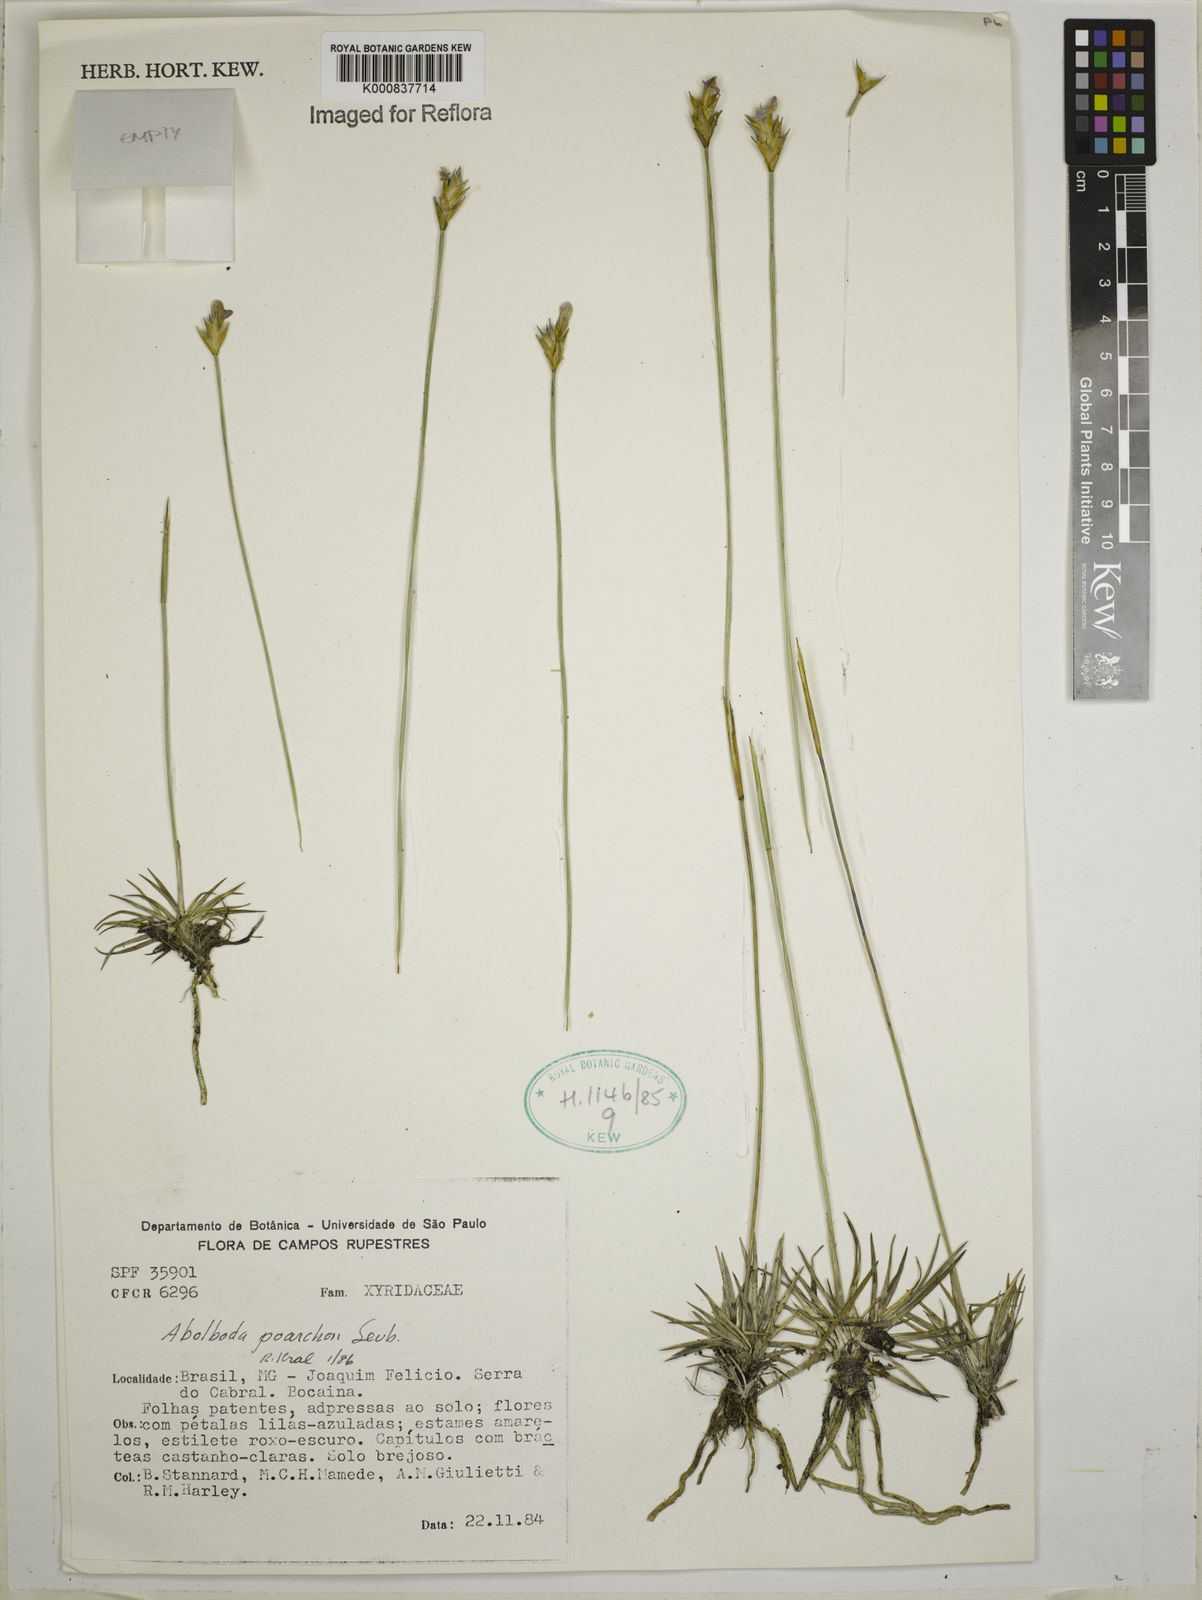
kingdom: Plantae
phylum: Tracheophyta
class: Liliopsida
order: Poales
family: Xyridaceae
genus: Abolboda
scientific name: Abolboda poarchon
